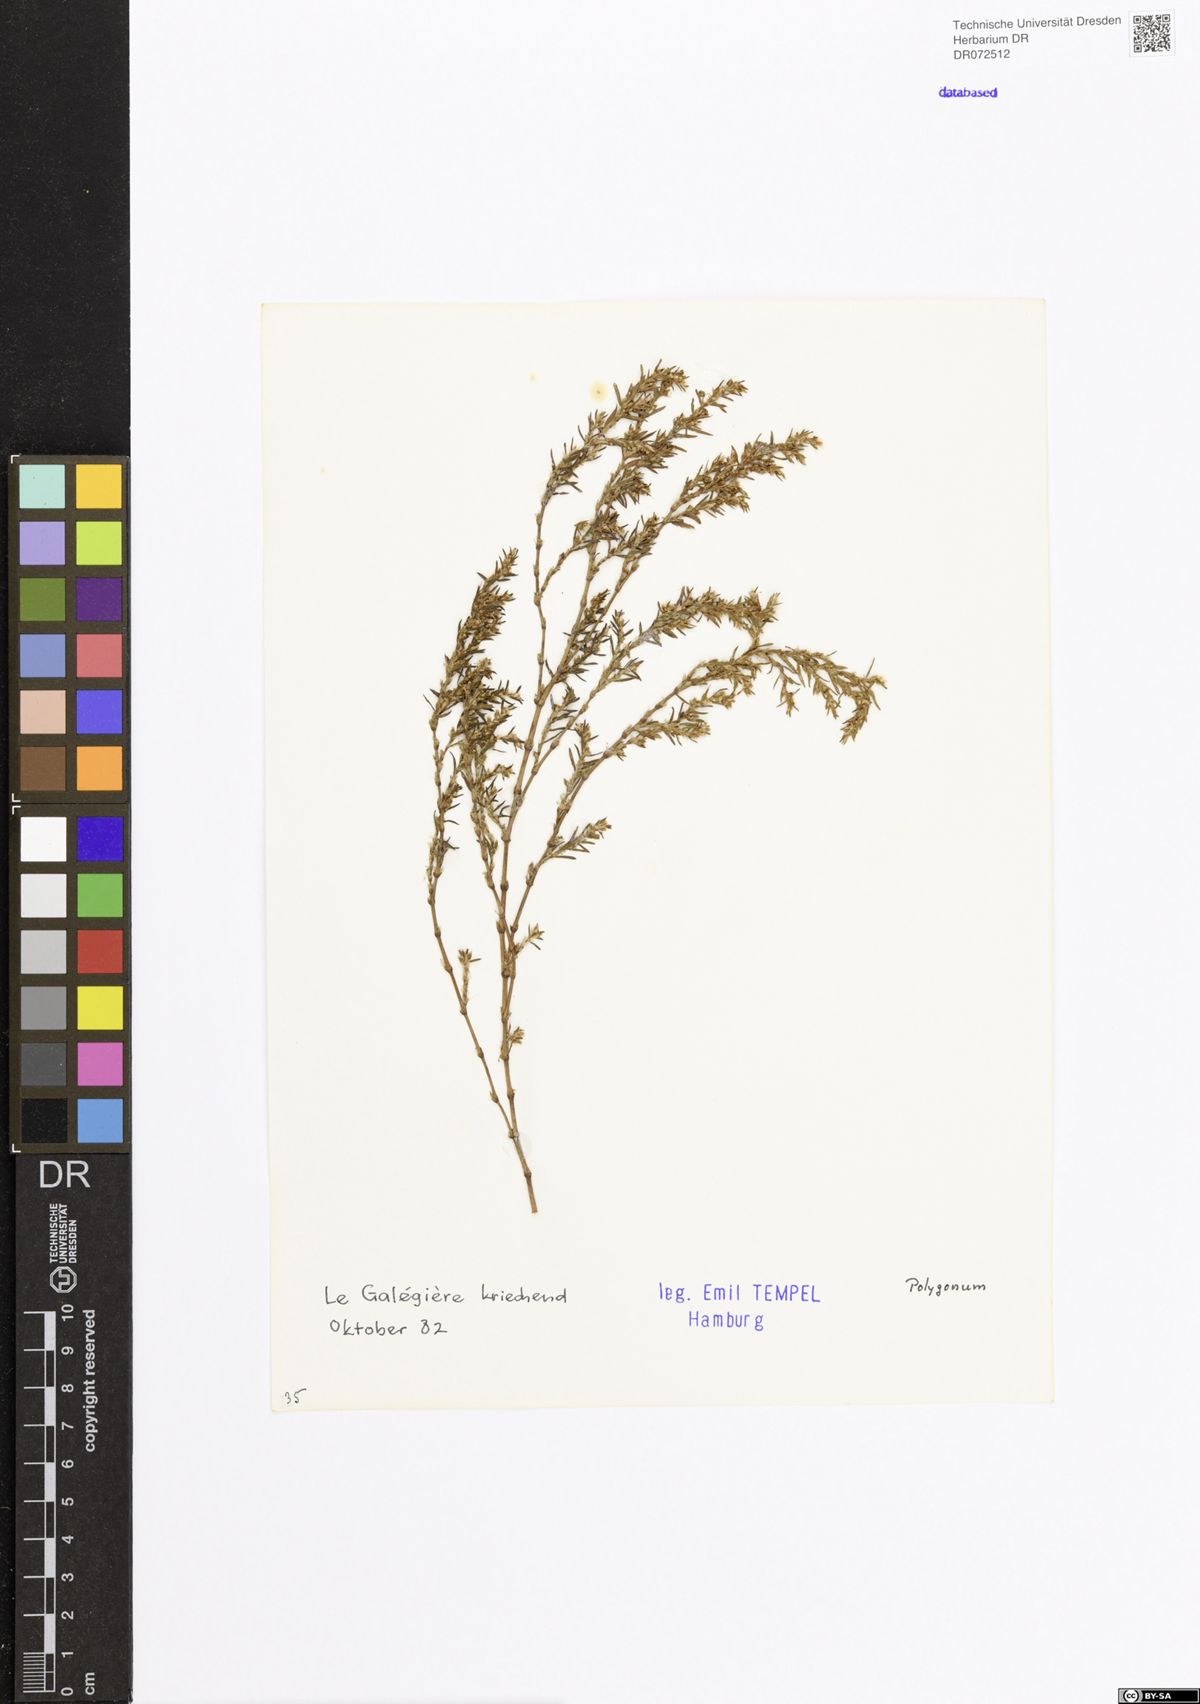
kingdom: Plantae
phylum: Tracheophyta
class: Magnoliopsida
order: Caryophyllales
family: Polygonaceae
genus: Polygonum
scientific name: Polygonum
